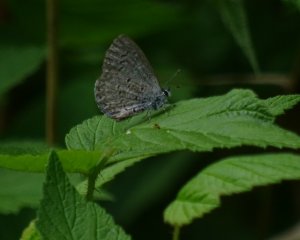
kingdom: Animalia
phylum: Arthropoda
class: Insecta
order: Lepidoptera
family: Lycaenidae
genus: Celastrina
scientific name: Celastrina lucia
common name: Northern Spring Azure
